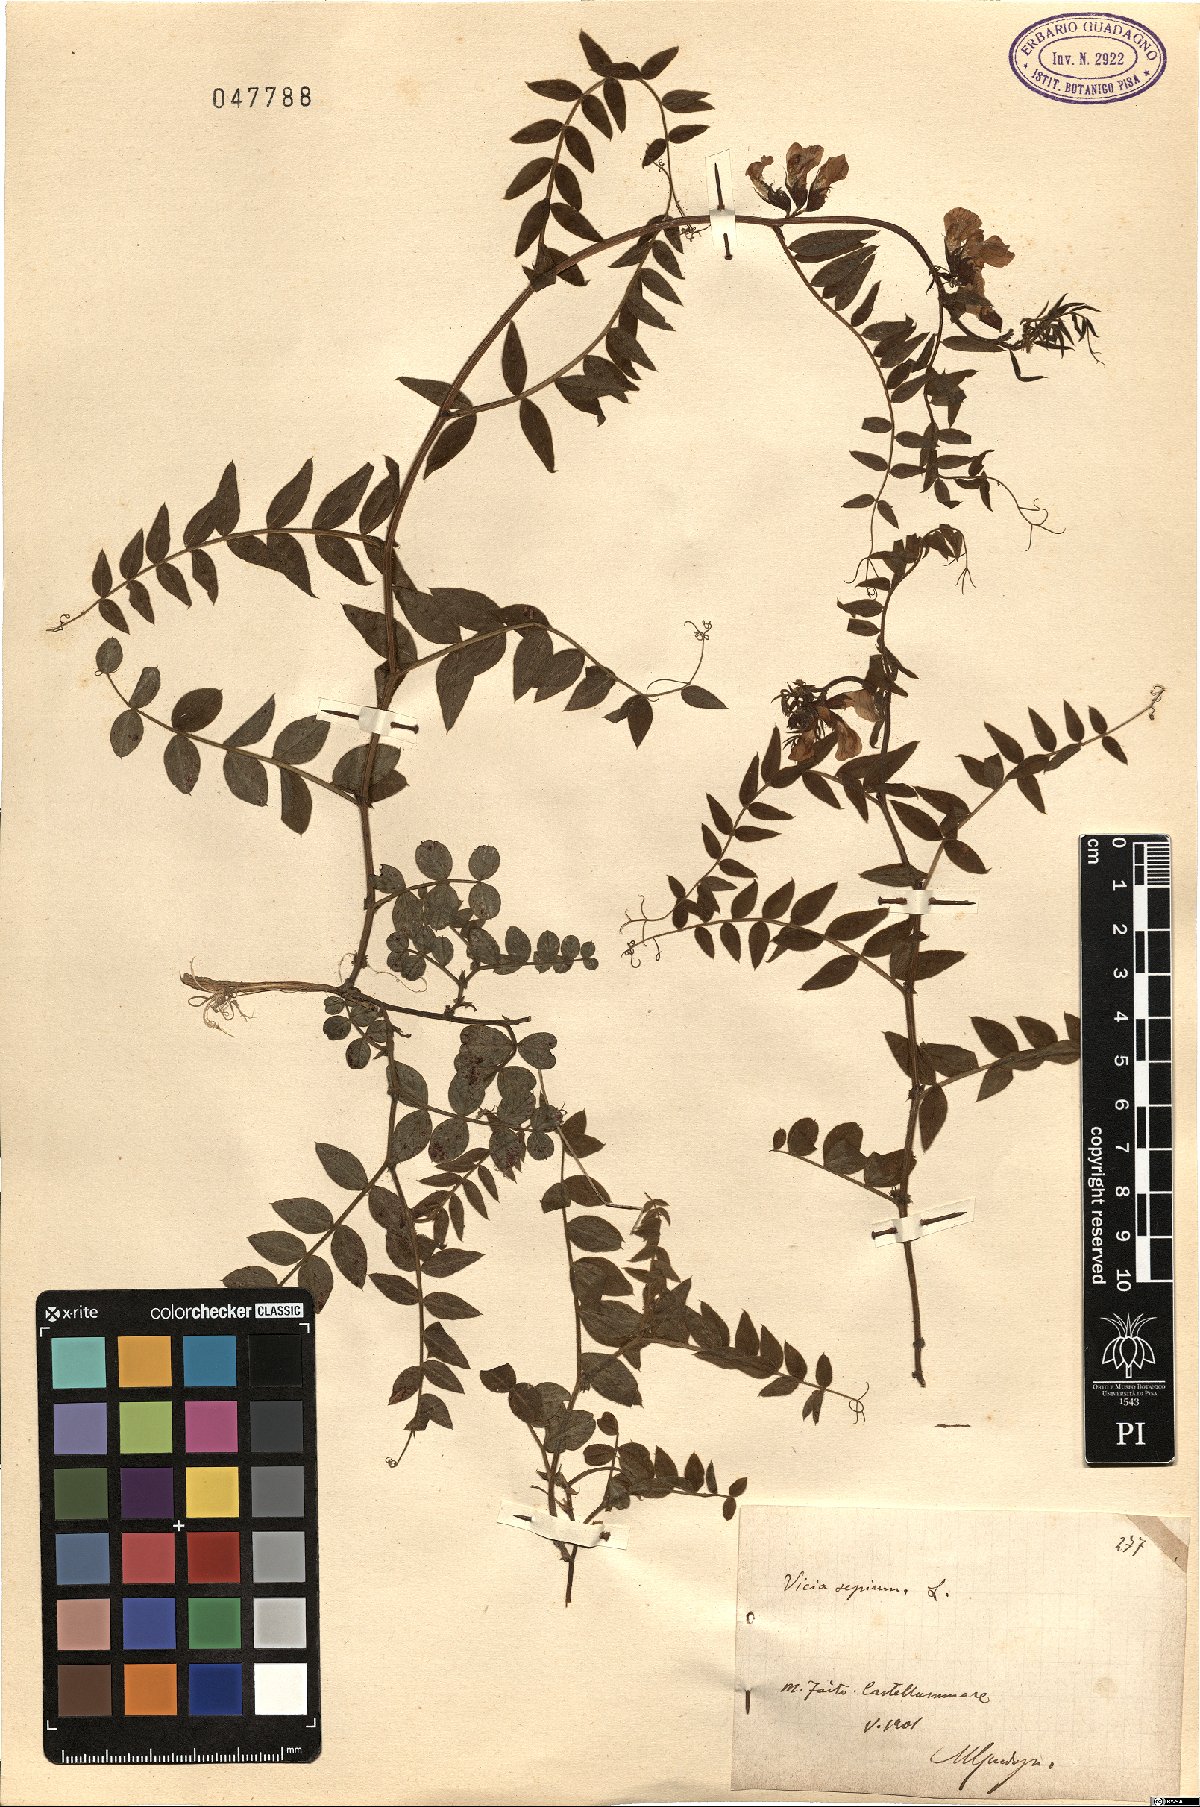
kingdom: Plantae
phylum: Tracheophyta
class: Magnoliopsida
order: Fabales
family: Fabaceae
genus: Vicia
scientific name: Vicia sepium
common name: Bush vetch
